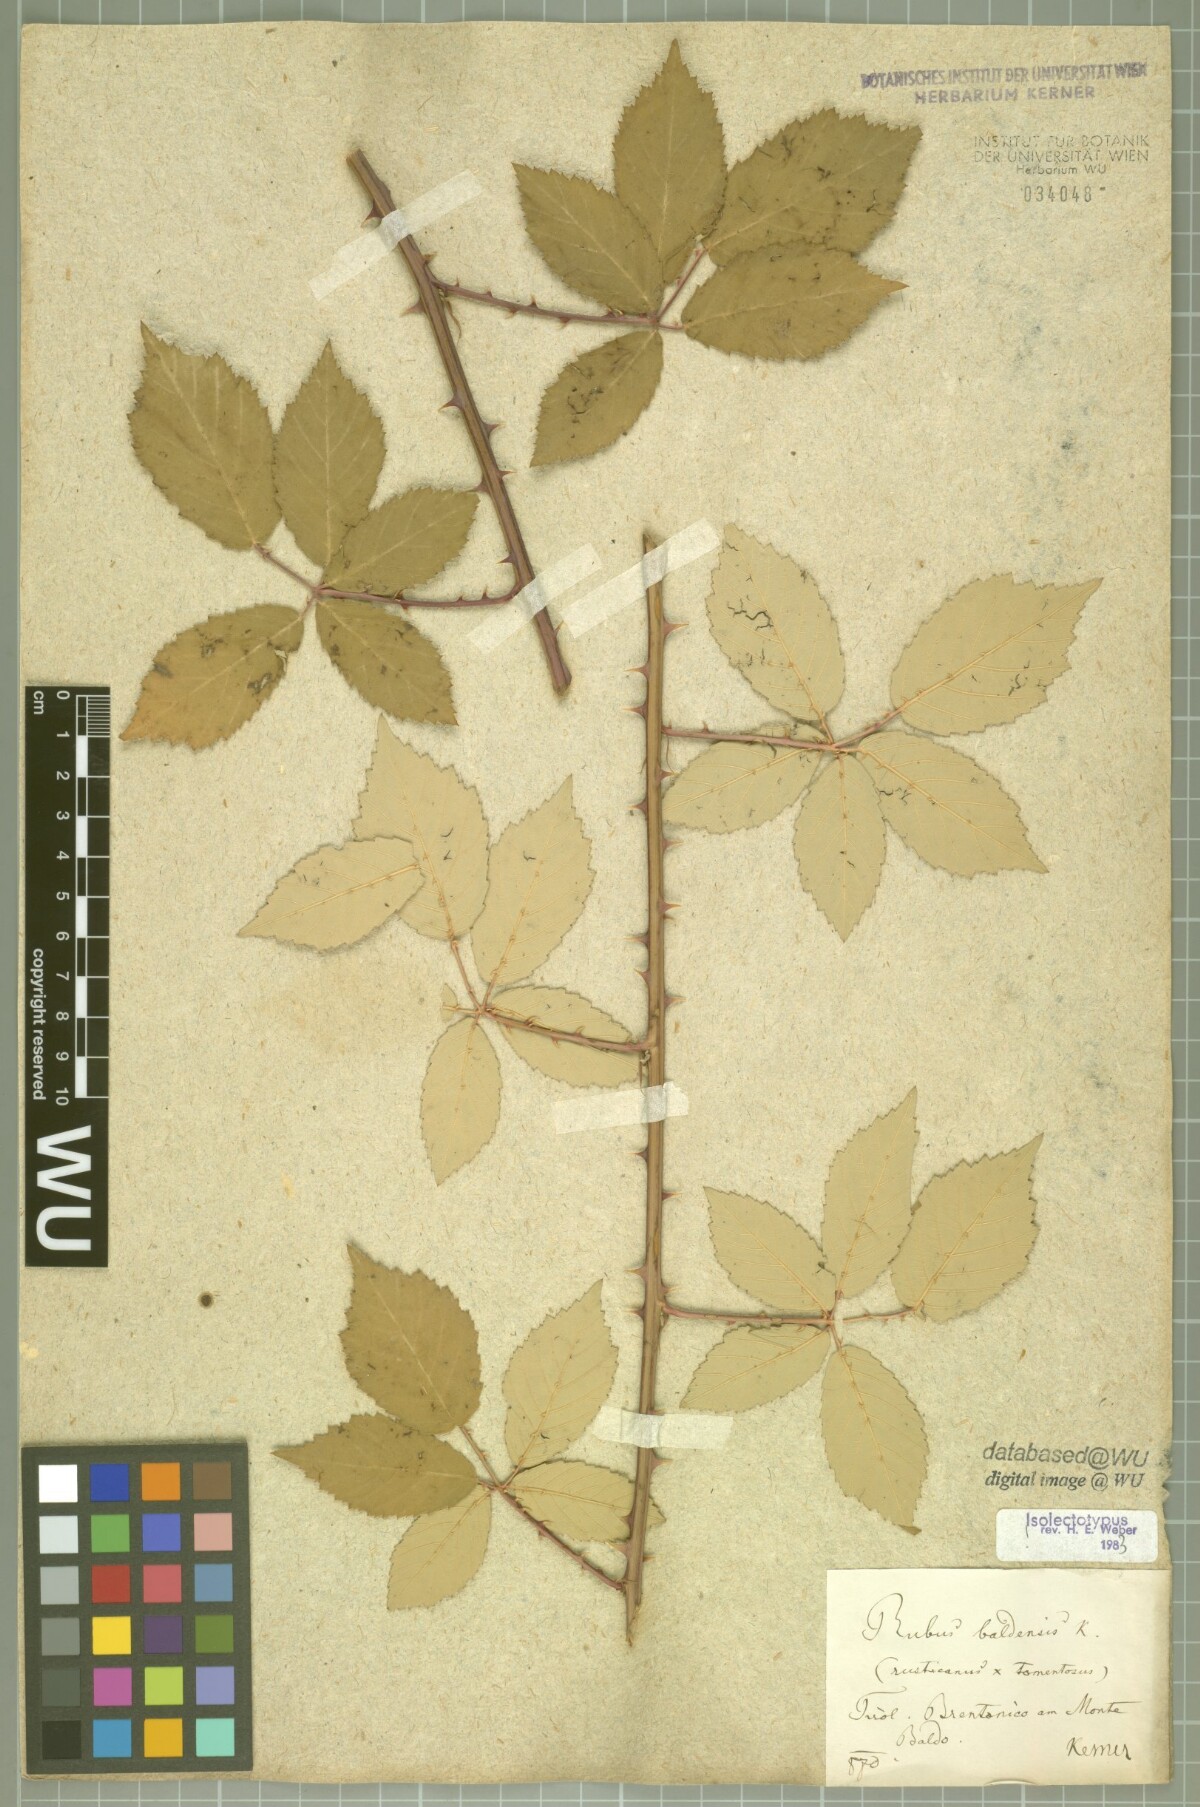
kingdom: Plantae
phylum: Tracheophyta
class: Magnoliopsida
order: Rosales
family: Rosaceae
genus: Rubus
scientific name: Rubus baldensis
